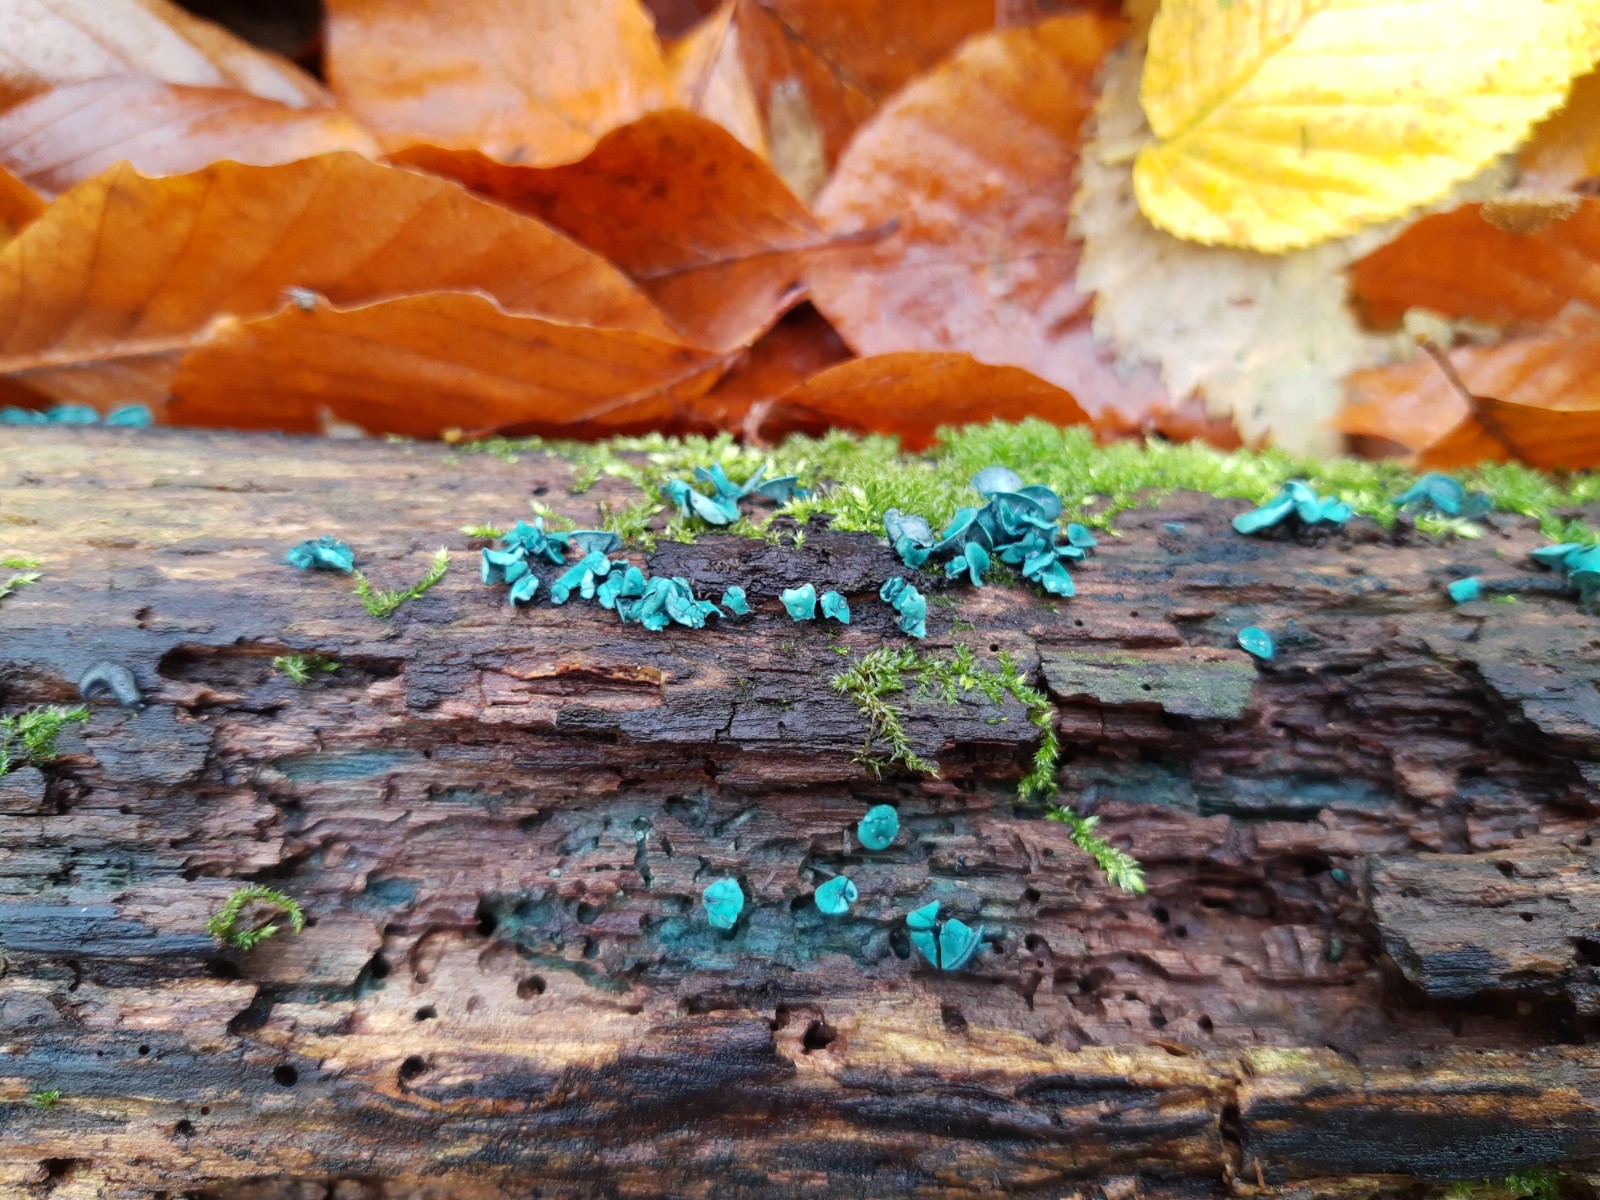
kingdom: Fungi
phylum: Ascomycota
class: Leotiomycetes
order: Helotiales
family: Chlorociboriaceae
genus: Chlorociboria
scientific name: Chlorociboria aeruginascens
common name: almindelig grønskive
